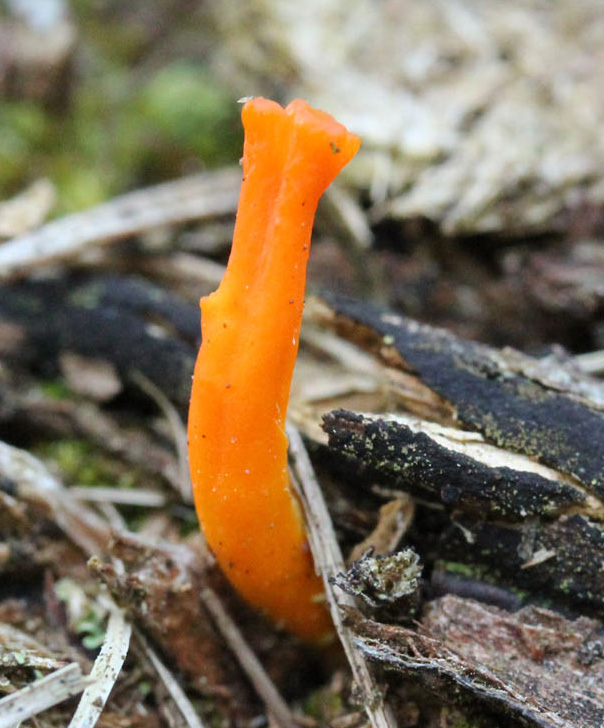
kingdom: Fungi
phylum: Basidiomycota
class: Dacrymycetes
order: Dacrymycetales
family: Dacrymycetaceae
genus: Calocera
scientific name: Calocera viscosa
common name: almindelig guldgaffel
